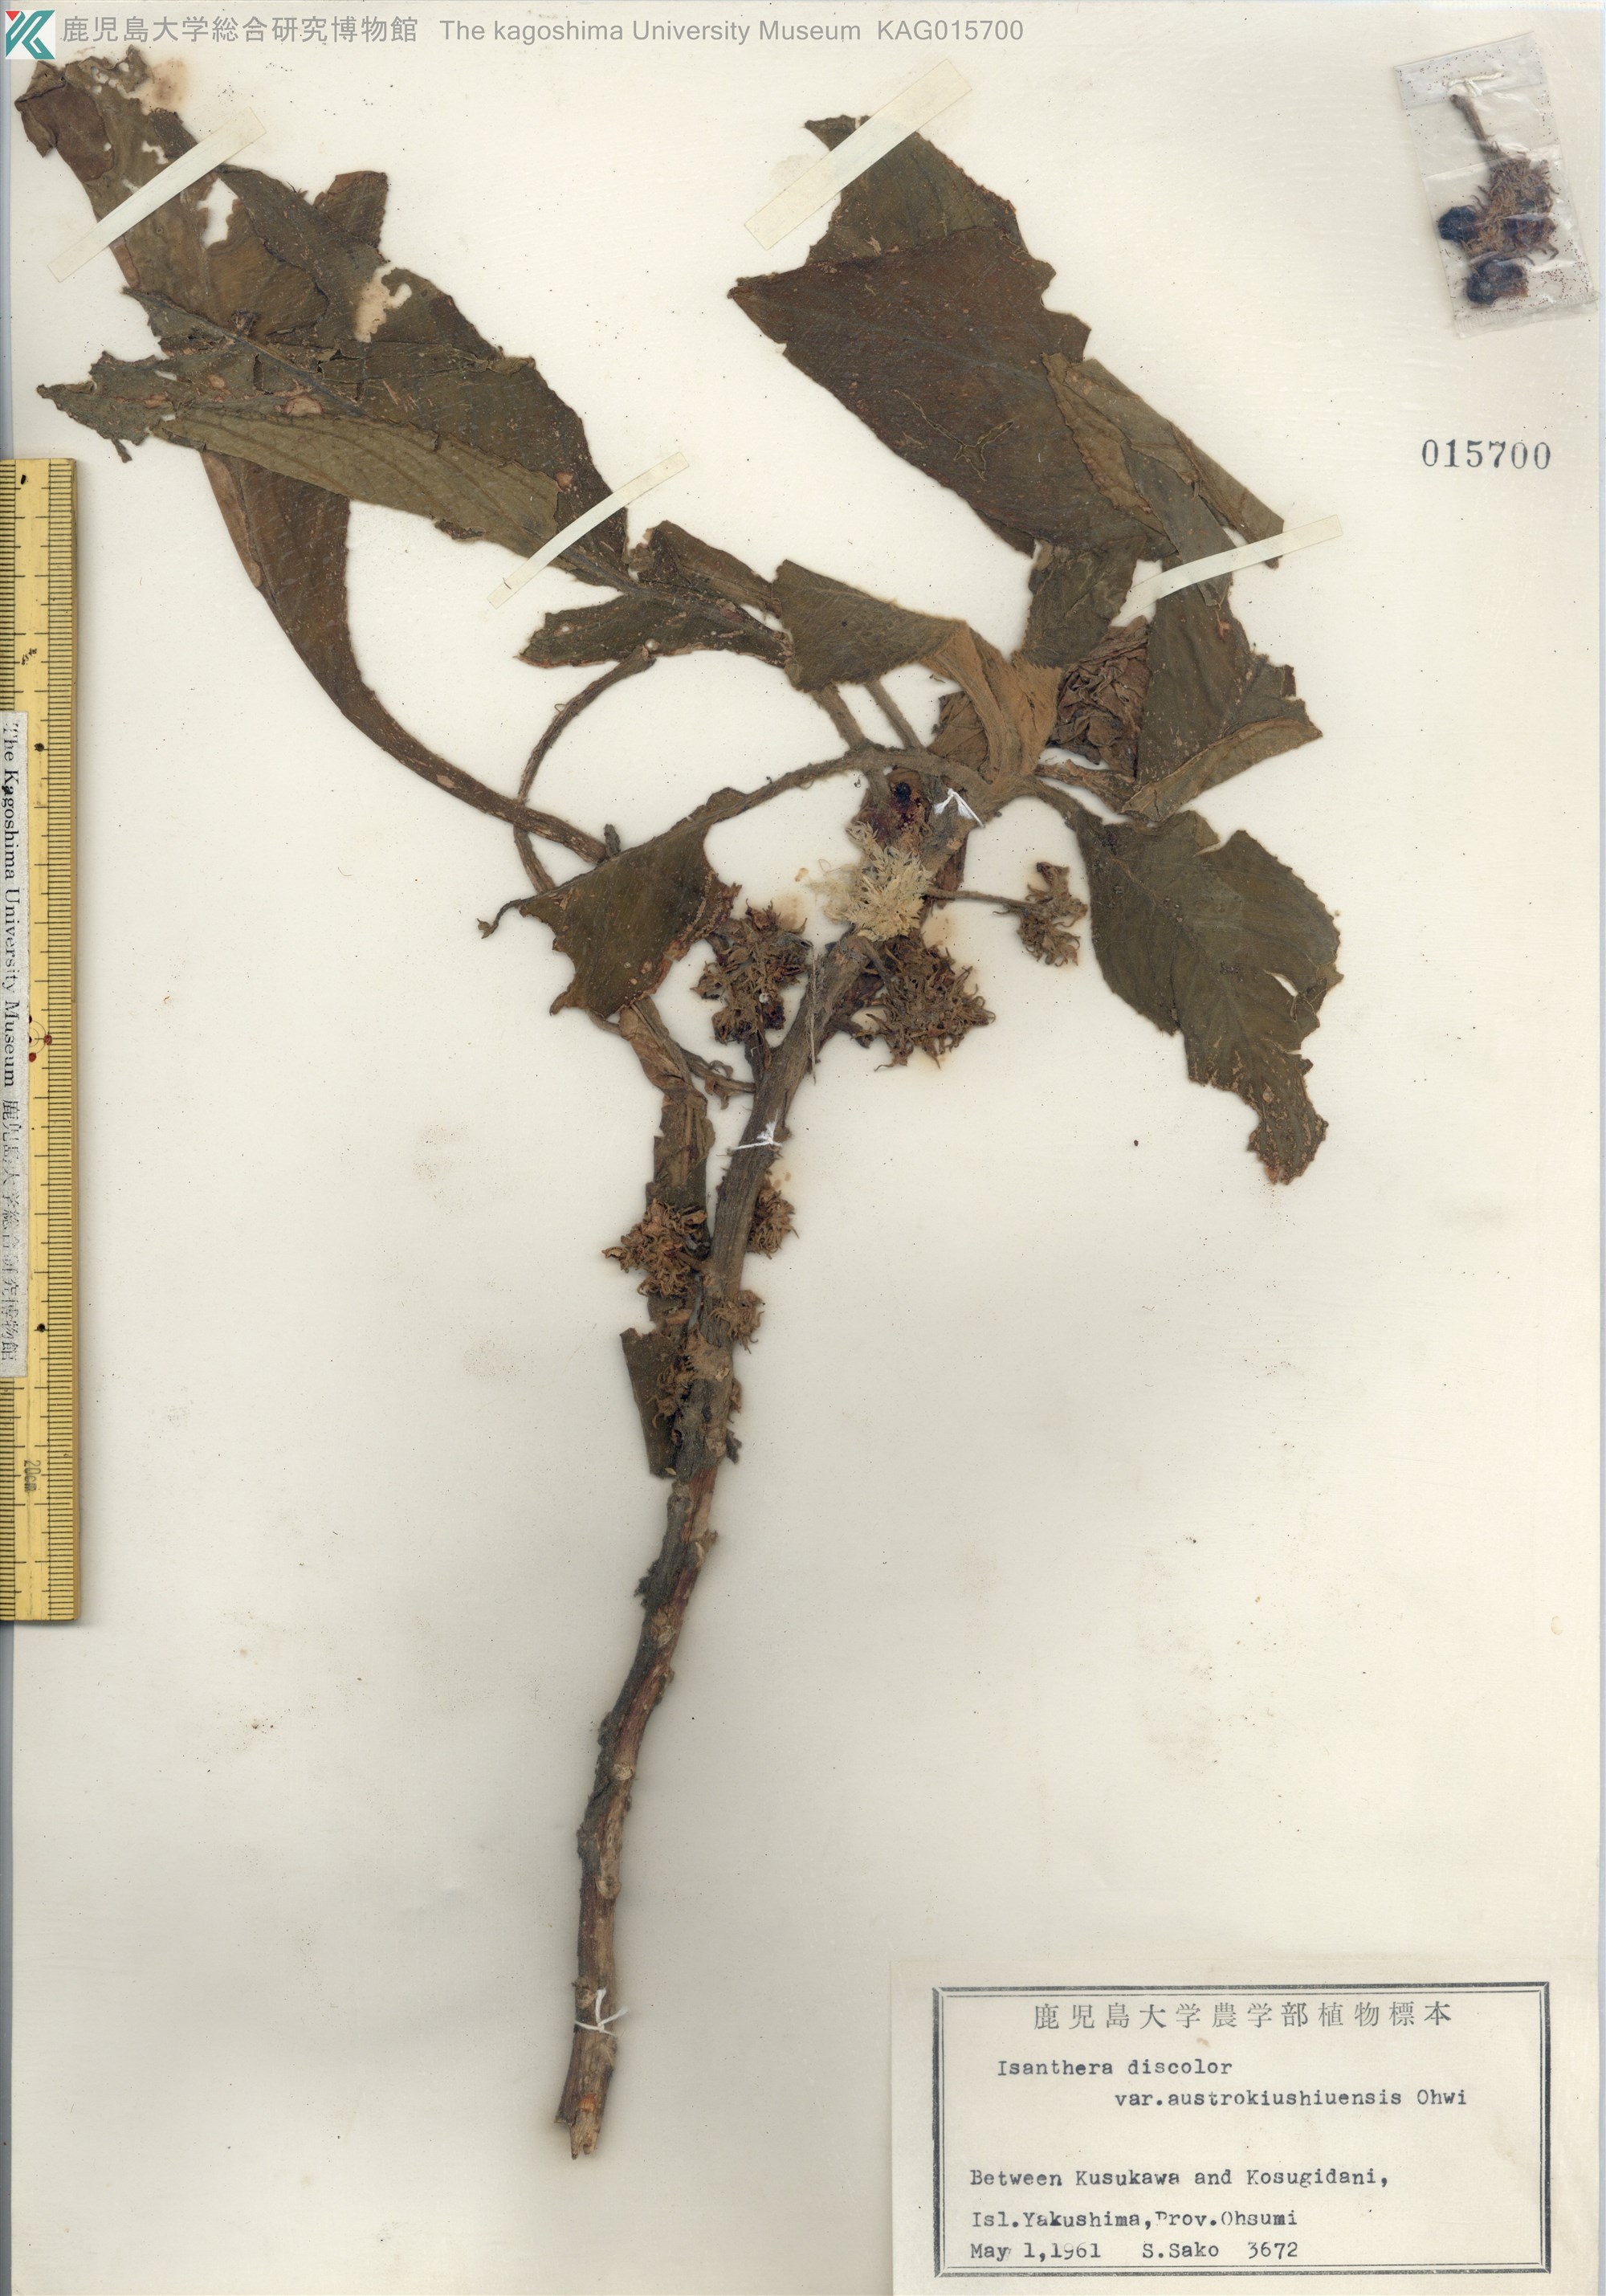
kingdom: Plantae
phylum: Tracheophyta
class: Magnoliopsida
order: Lamiales
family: Gesneriaceae
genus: Rhynchotechum
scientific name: Rhynchotechum discolor
